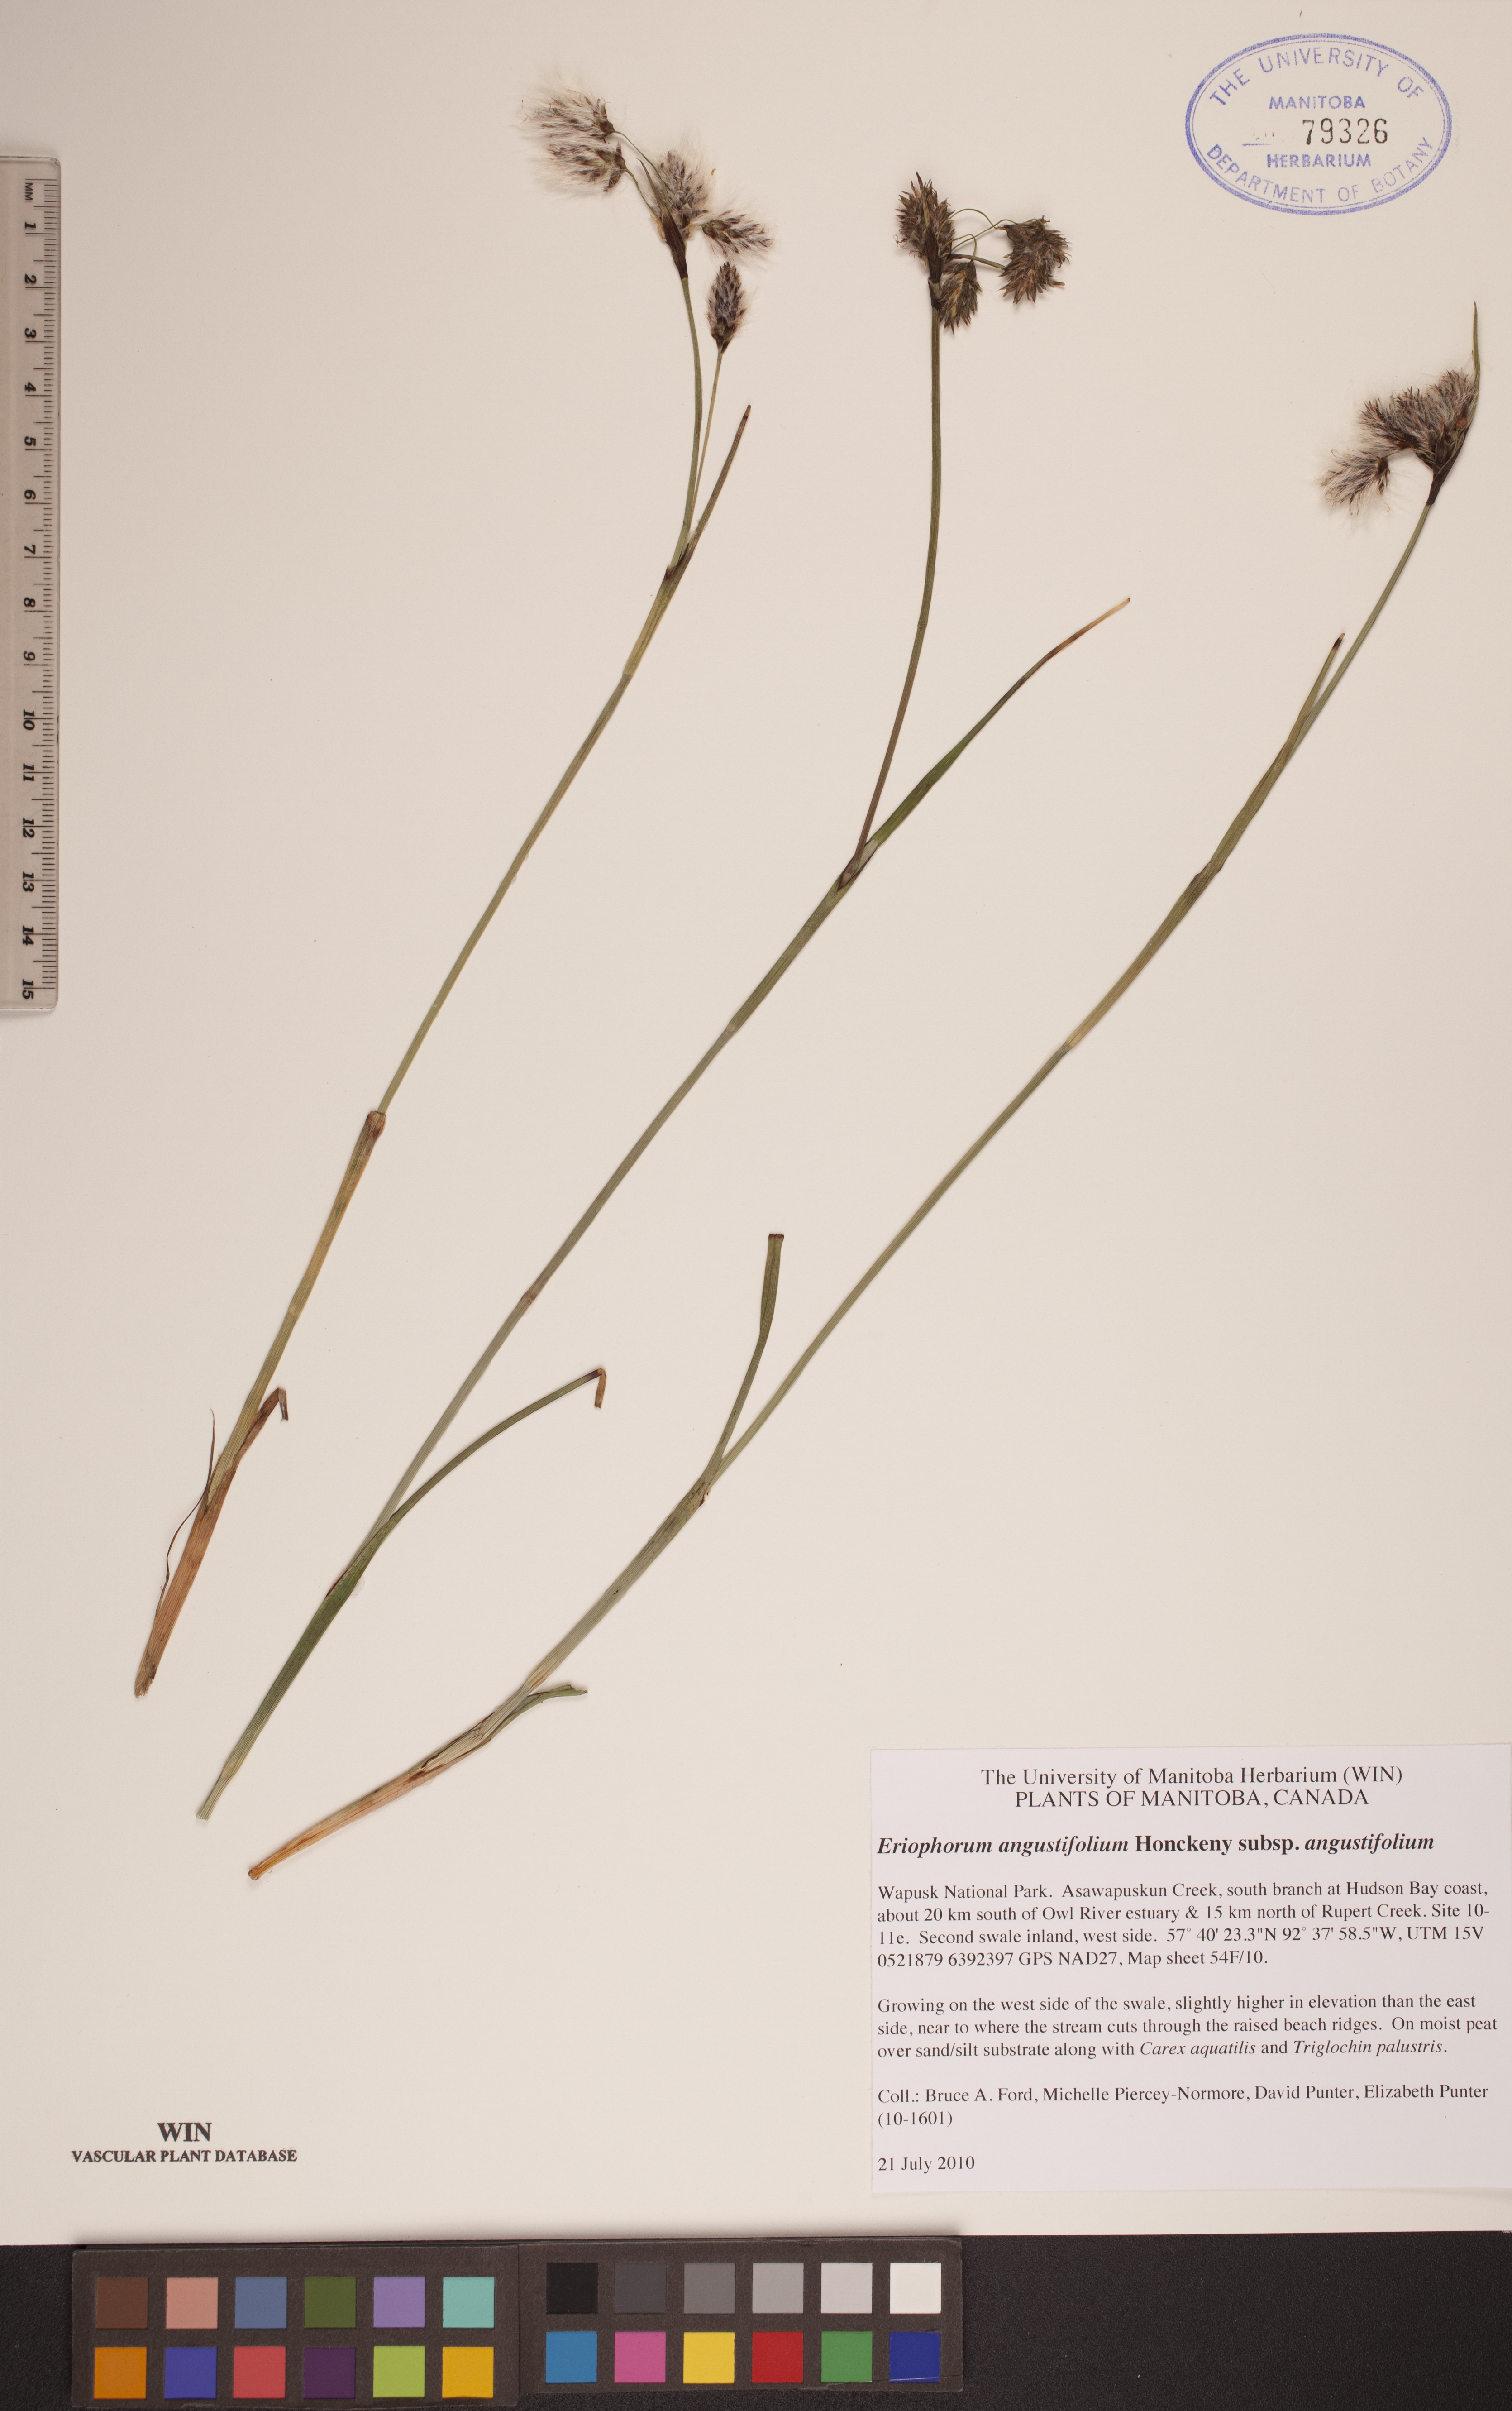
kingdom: Plantae
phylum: Tracheophyta
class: Liliopsida
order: Poales
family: Cyperaceae
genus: Eriophorum
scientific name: Eriophorum angustifolium
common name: Common cottongrass
